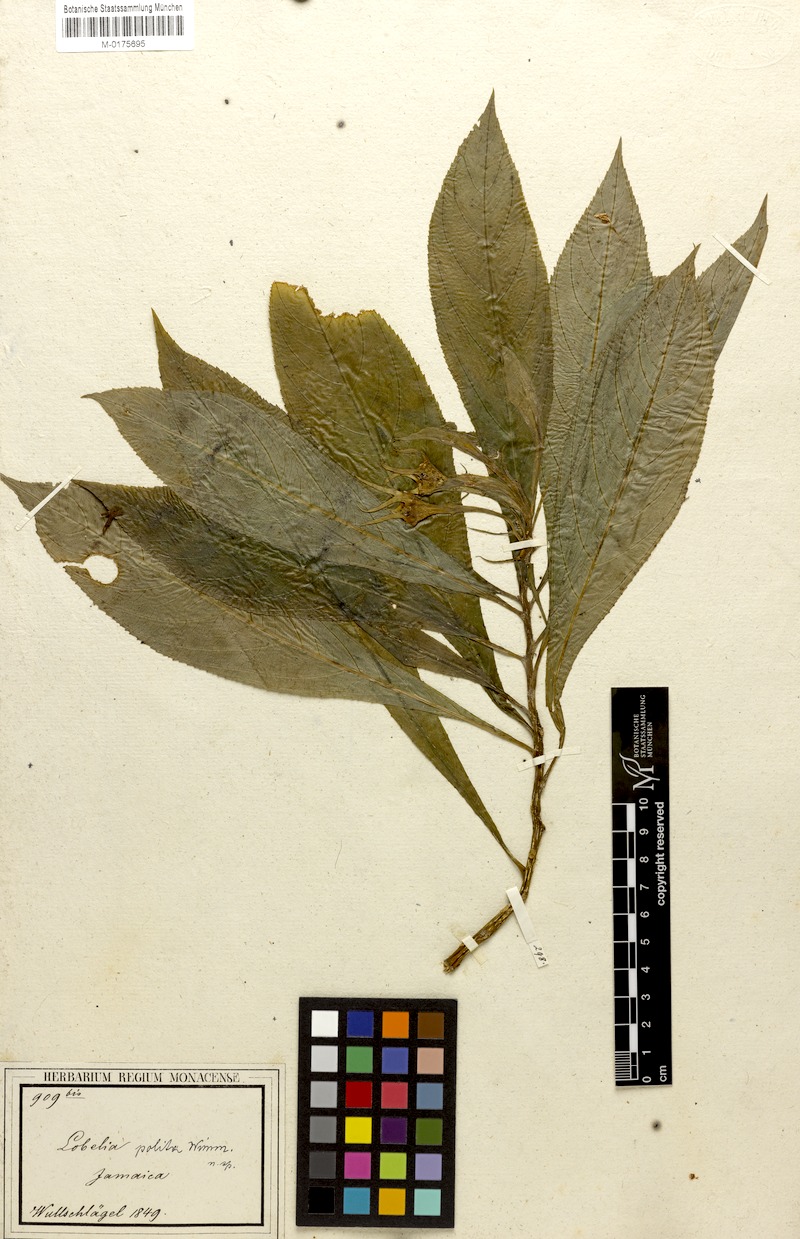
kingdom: Plantae
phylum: Tracheophyta
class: Magnoliopsida
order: Asterales
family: Campanulaceae
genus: Lobelia
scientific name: Lobelia acuminata
